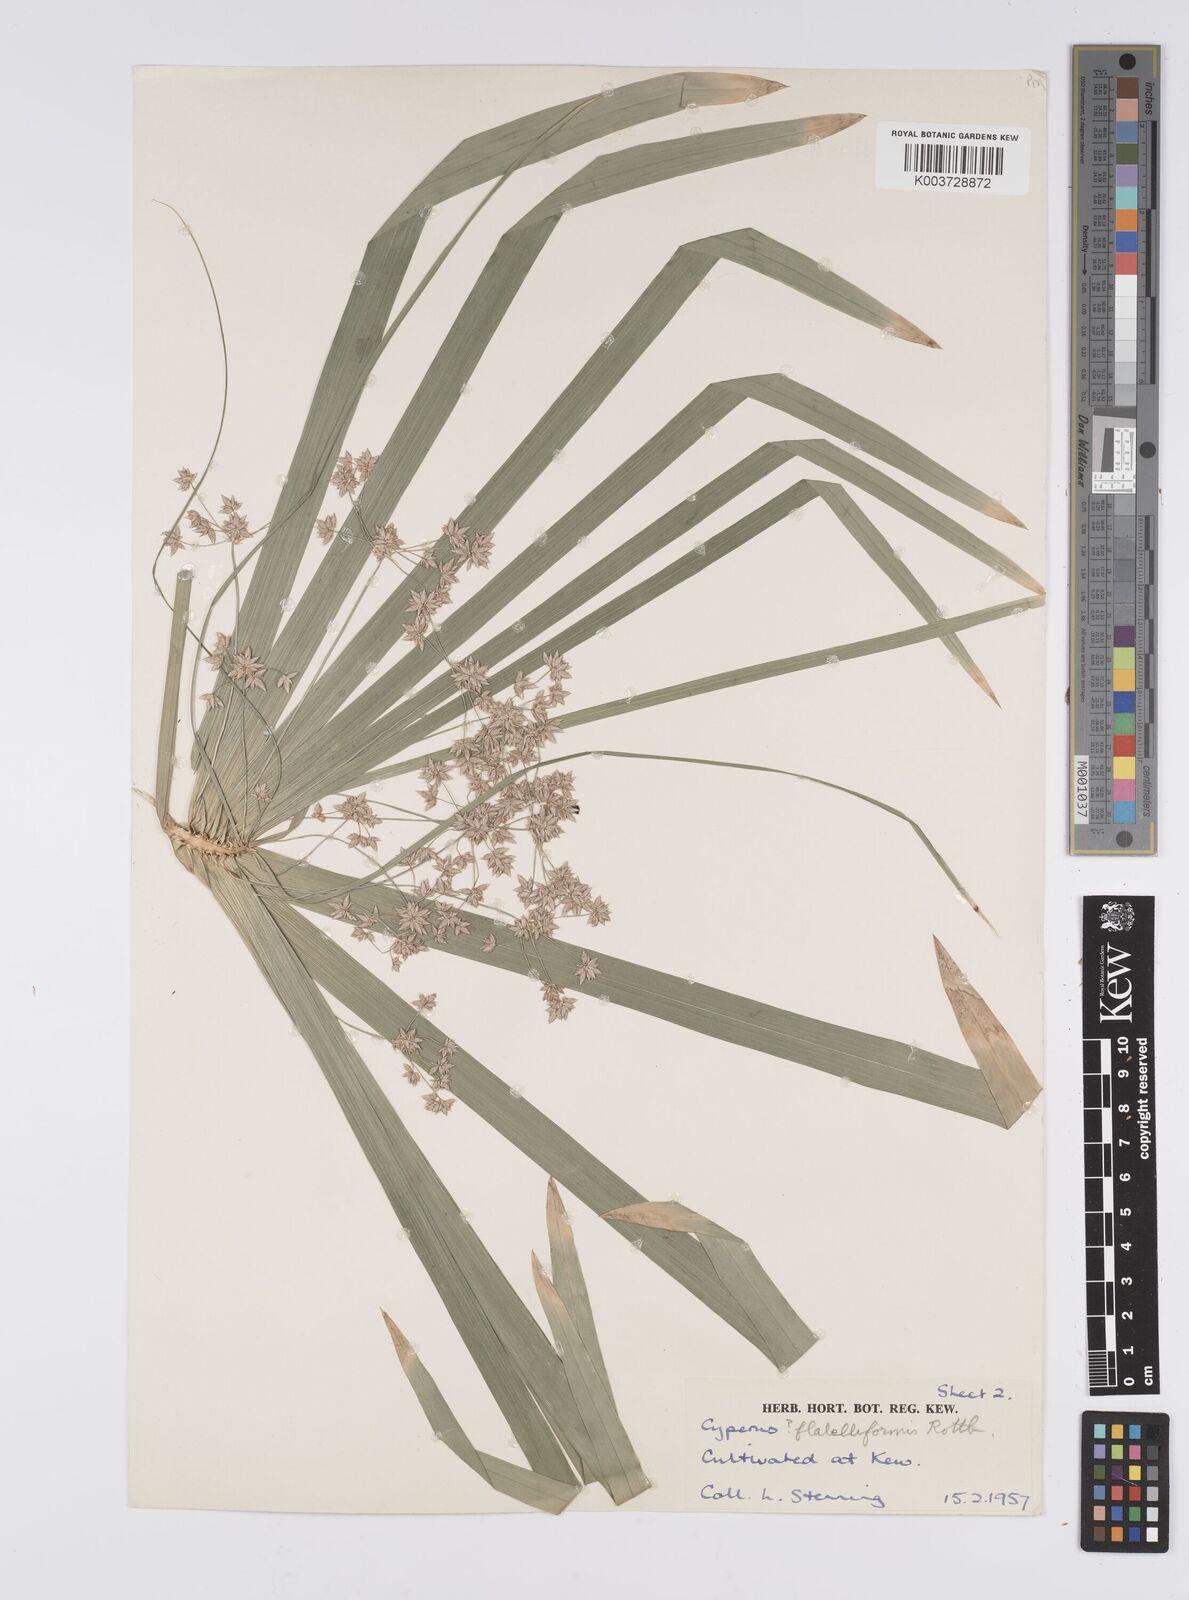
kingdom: Plantae
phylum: Tracheophyta
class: Liliopsida
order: Poales
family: Cyperaceae
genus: Cyperus
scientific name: Cyperus alternifolius
